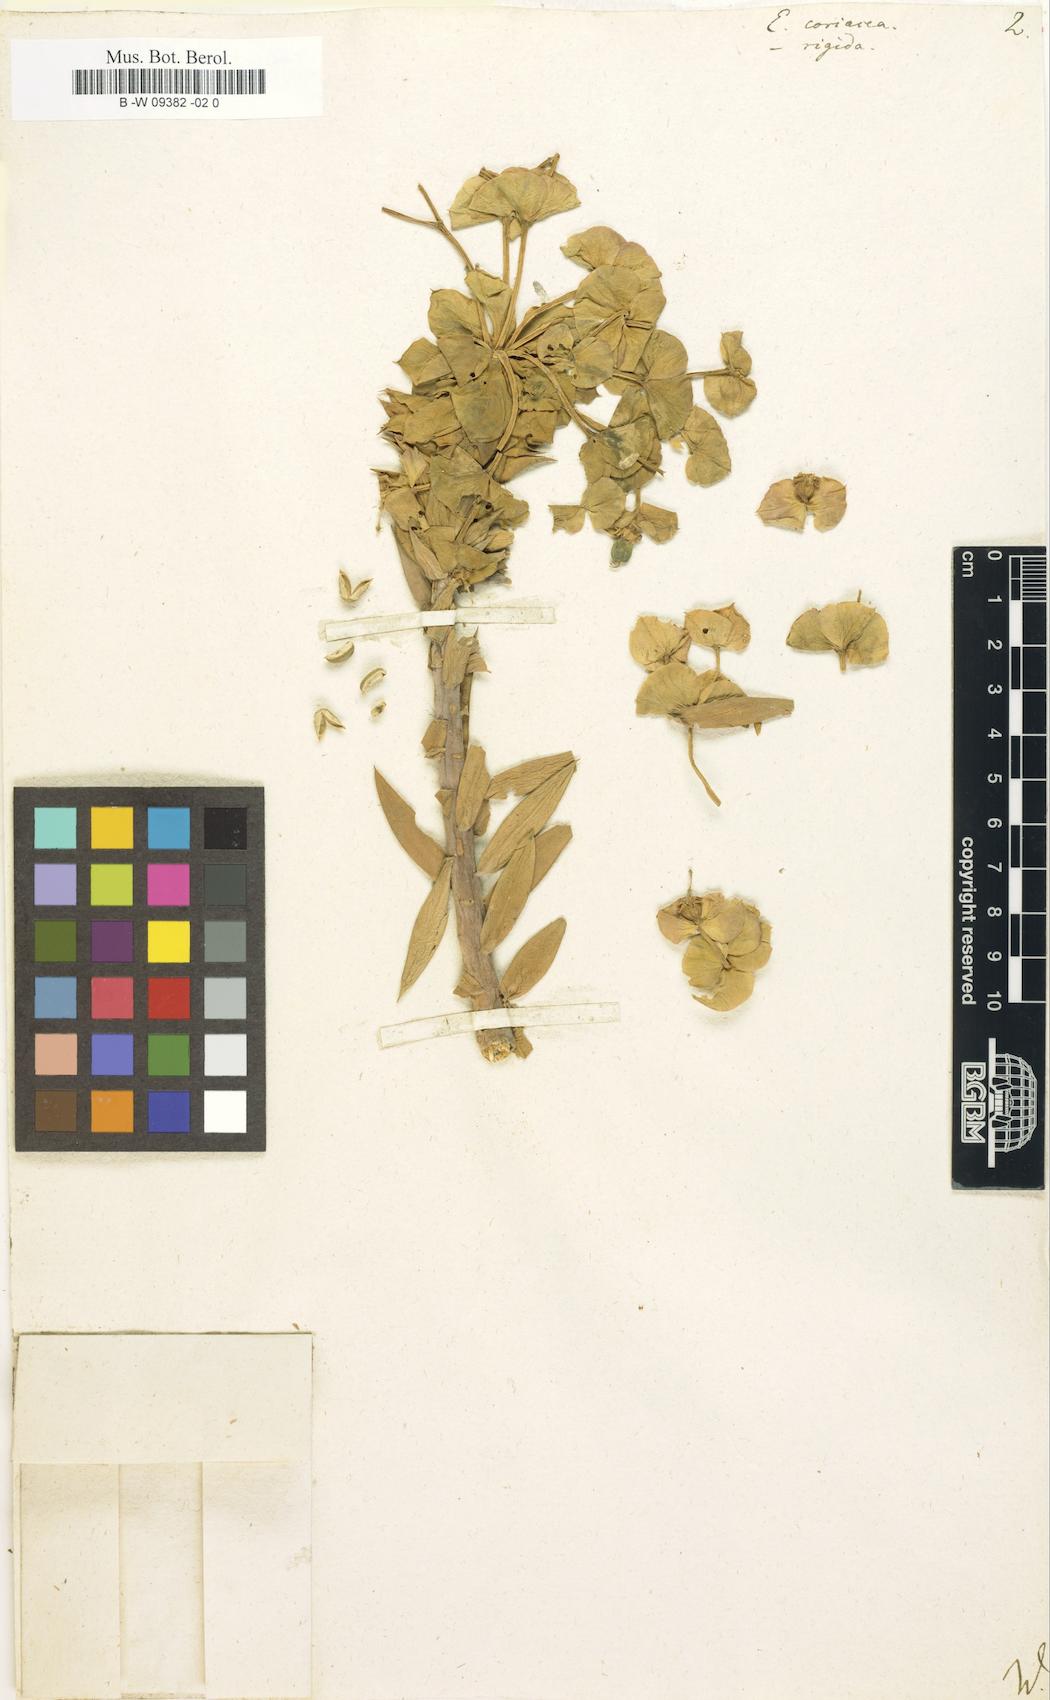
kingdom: Plantae
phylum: Tracheophyta
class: Magnoliopsida
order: Malpighiales
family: Euphorbiaceae
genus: Euphorbia
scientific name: Euphorbia heteradena
